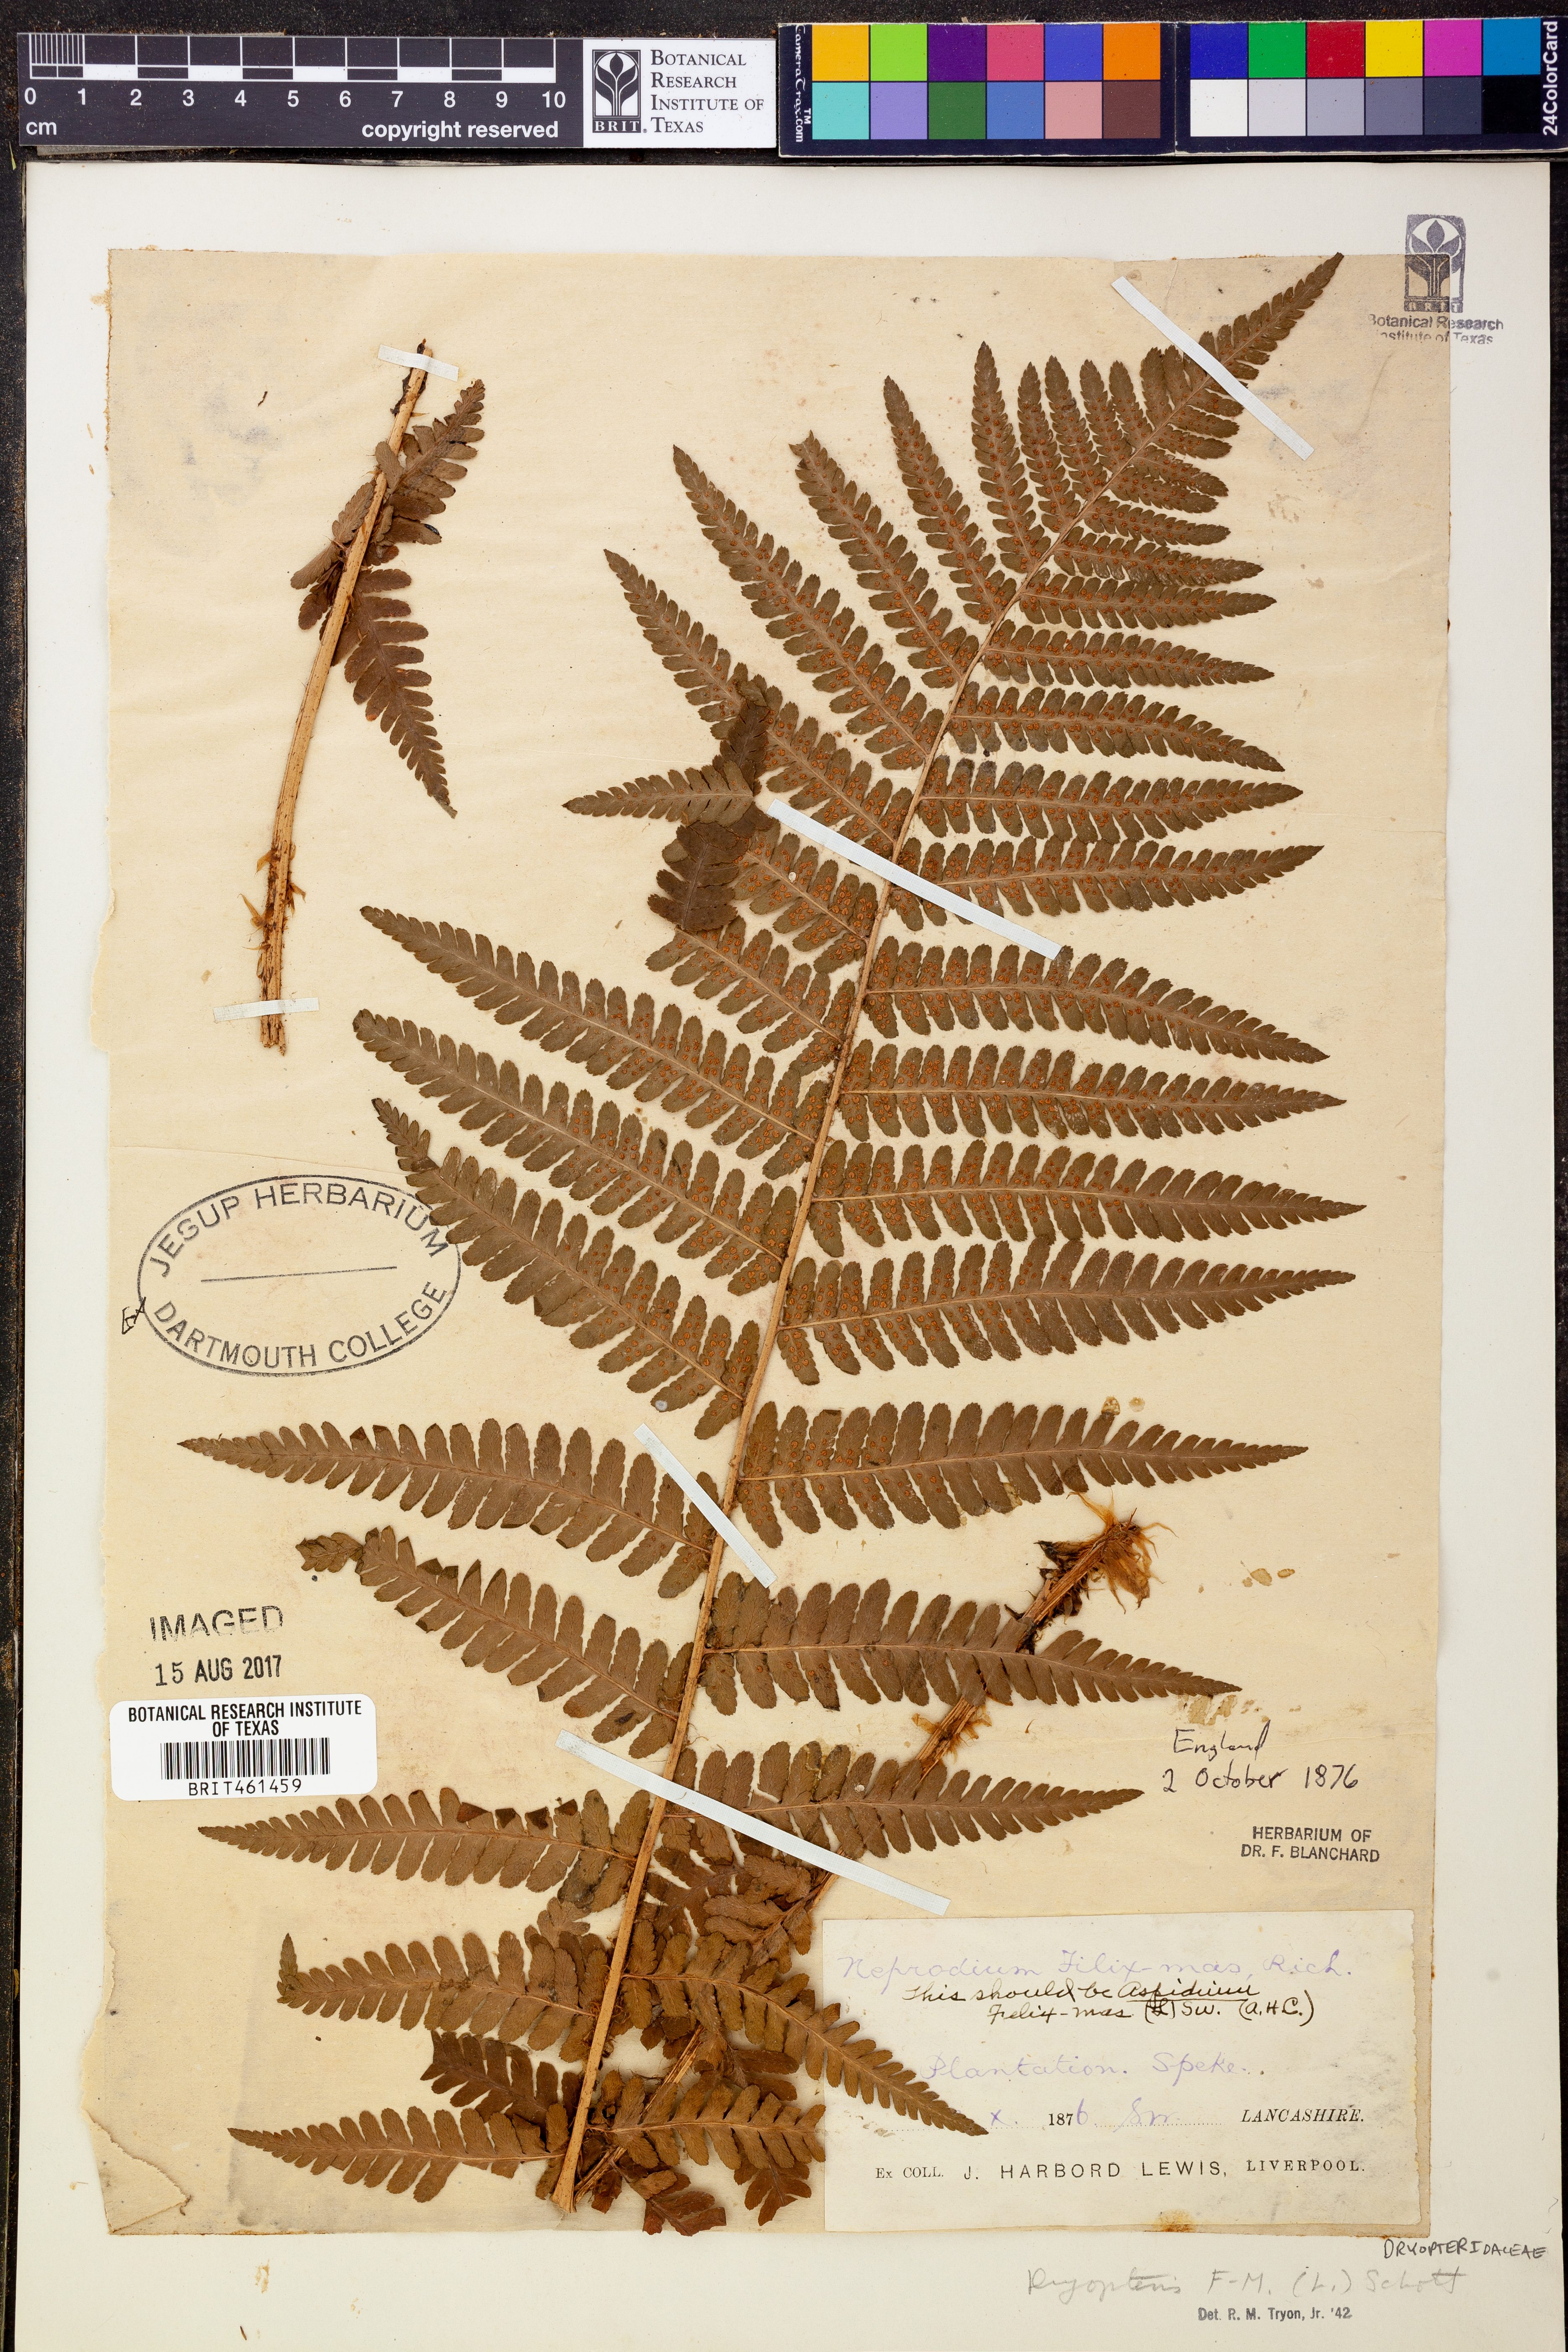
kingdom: Plantae
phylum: Tracheophyta
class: Polypodiopsida
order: Polypodiales
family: Dryopteridaceae
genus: Dryopteris
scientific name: Dryopteris filix-mas
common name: Male fern
